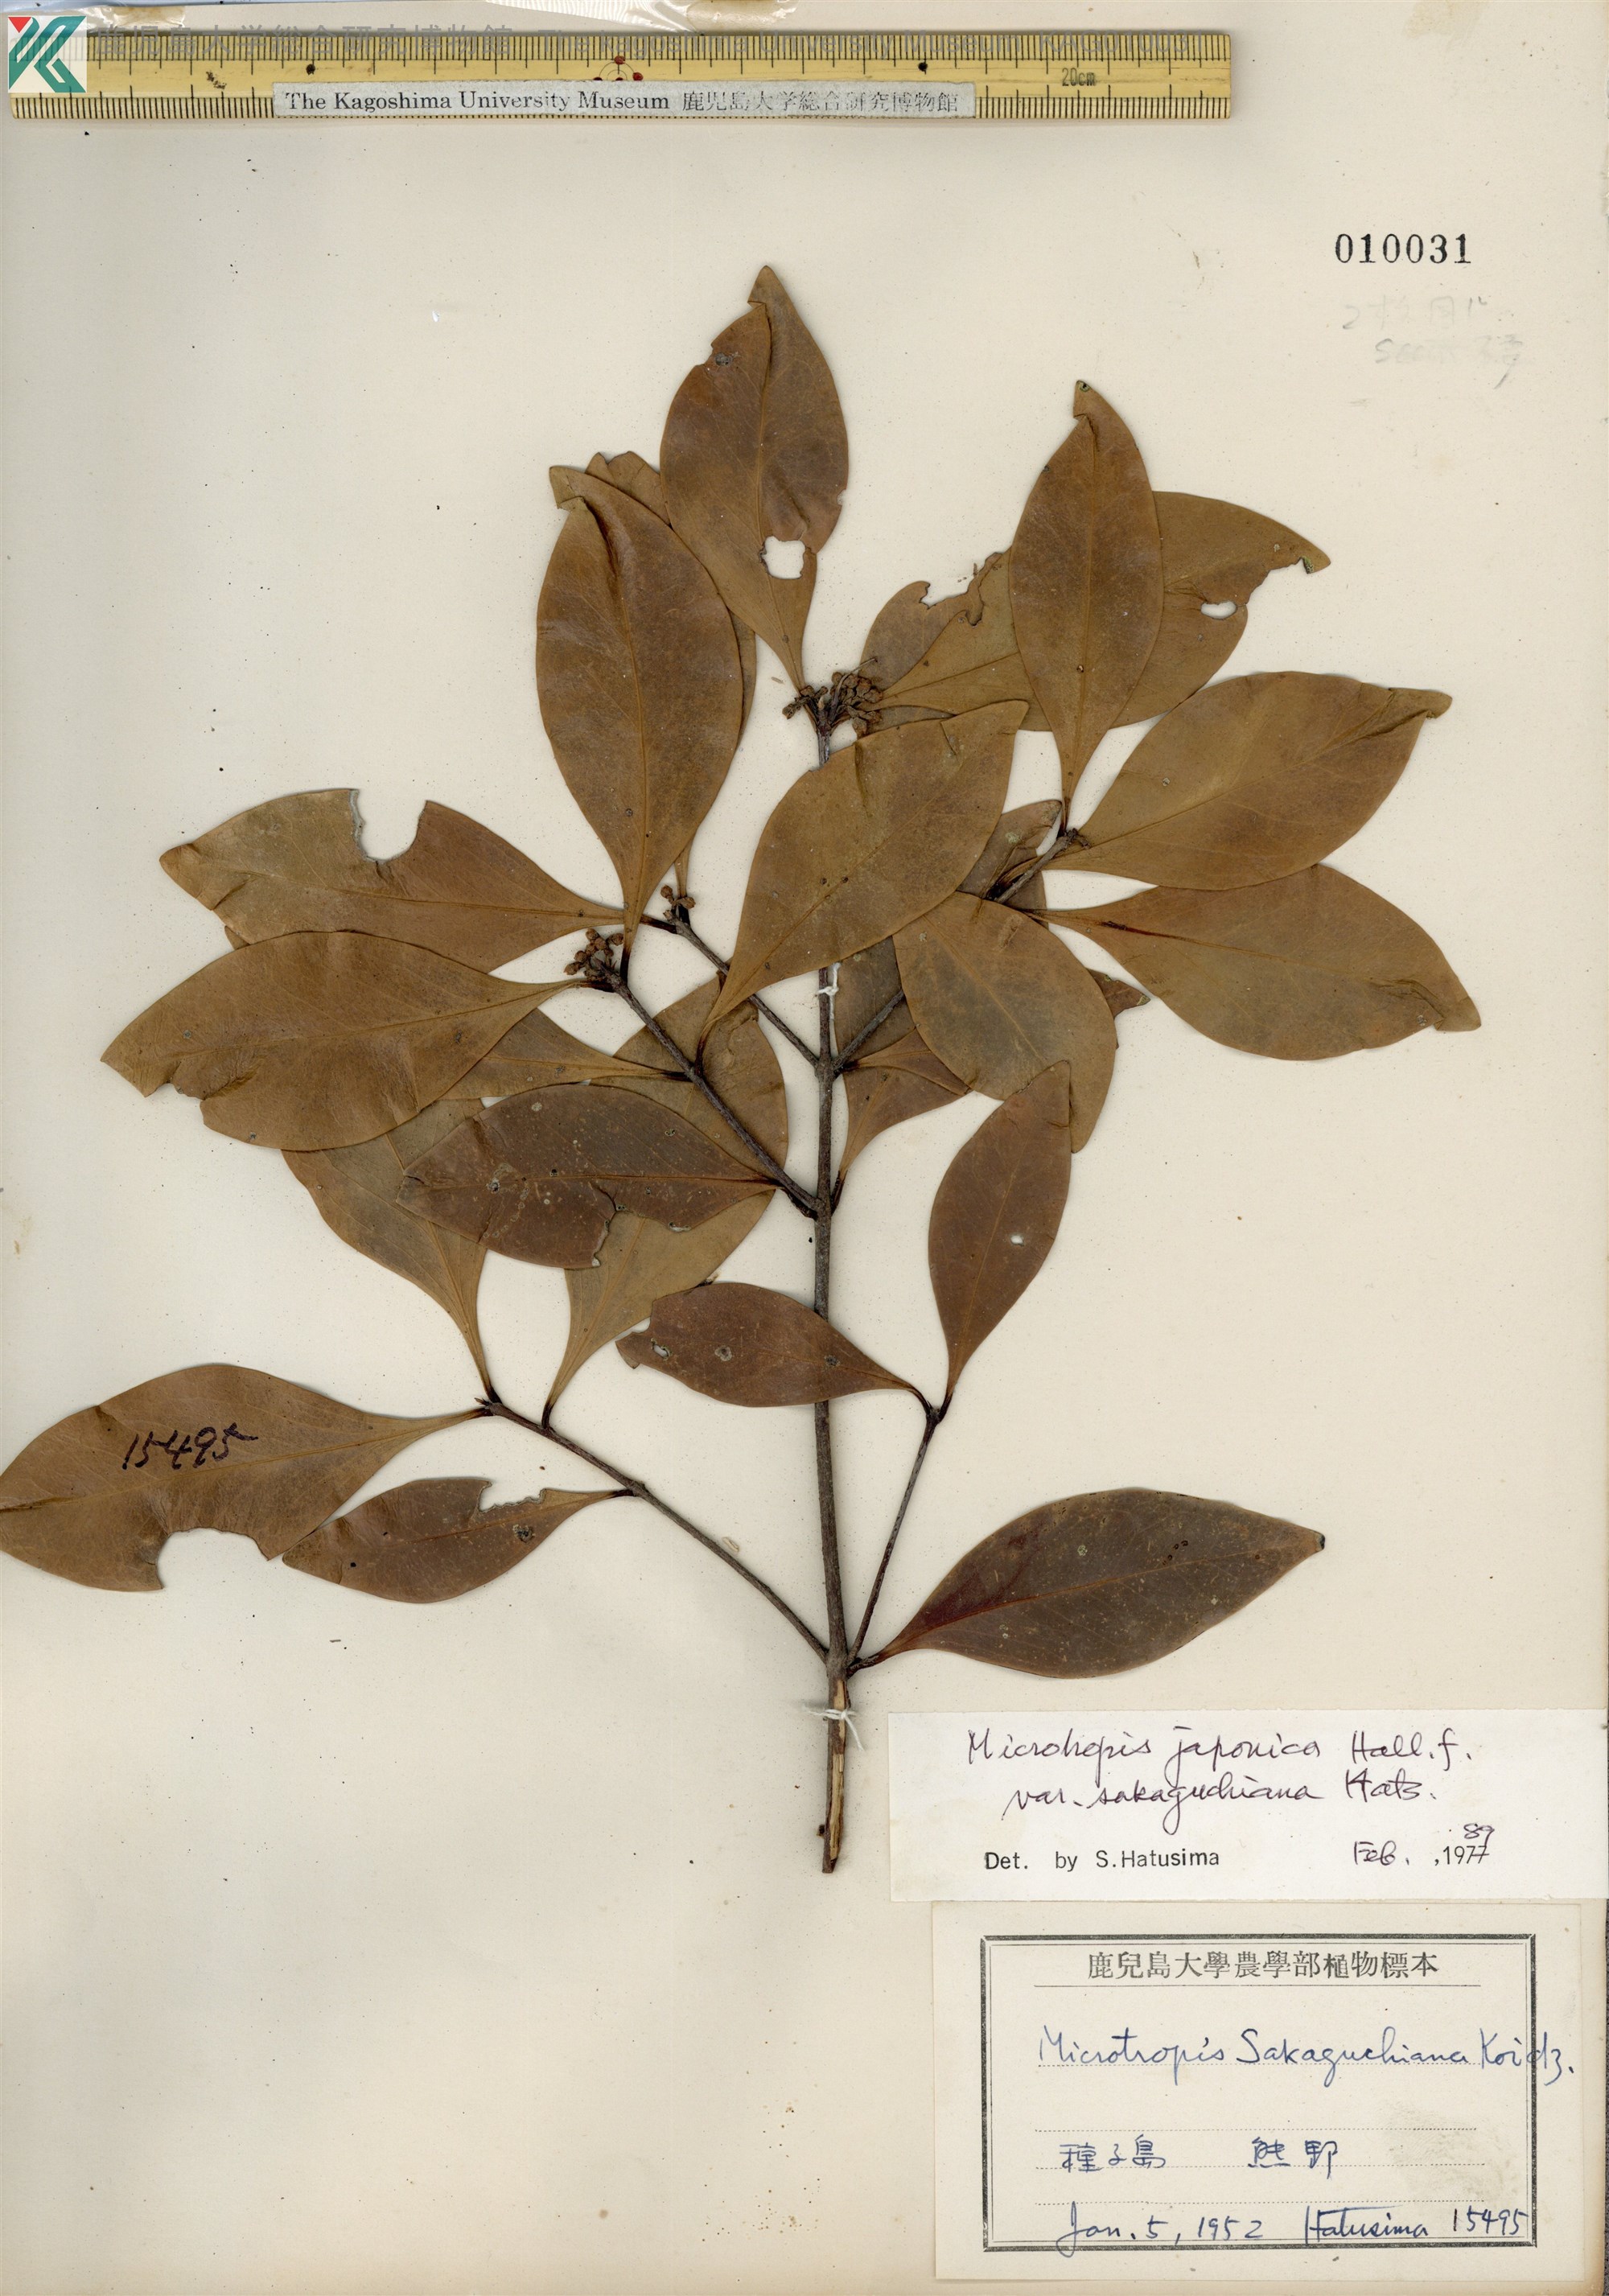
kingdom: Plantae
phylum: Tracheophyta
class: Magnoliopsida
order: Celastrales
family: Celastraceae
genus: Microtropis
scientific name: Microtropis japonica
